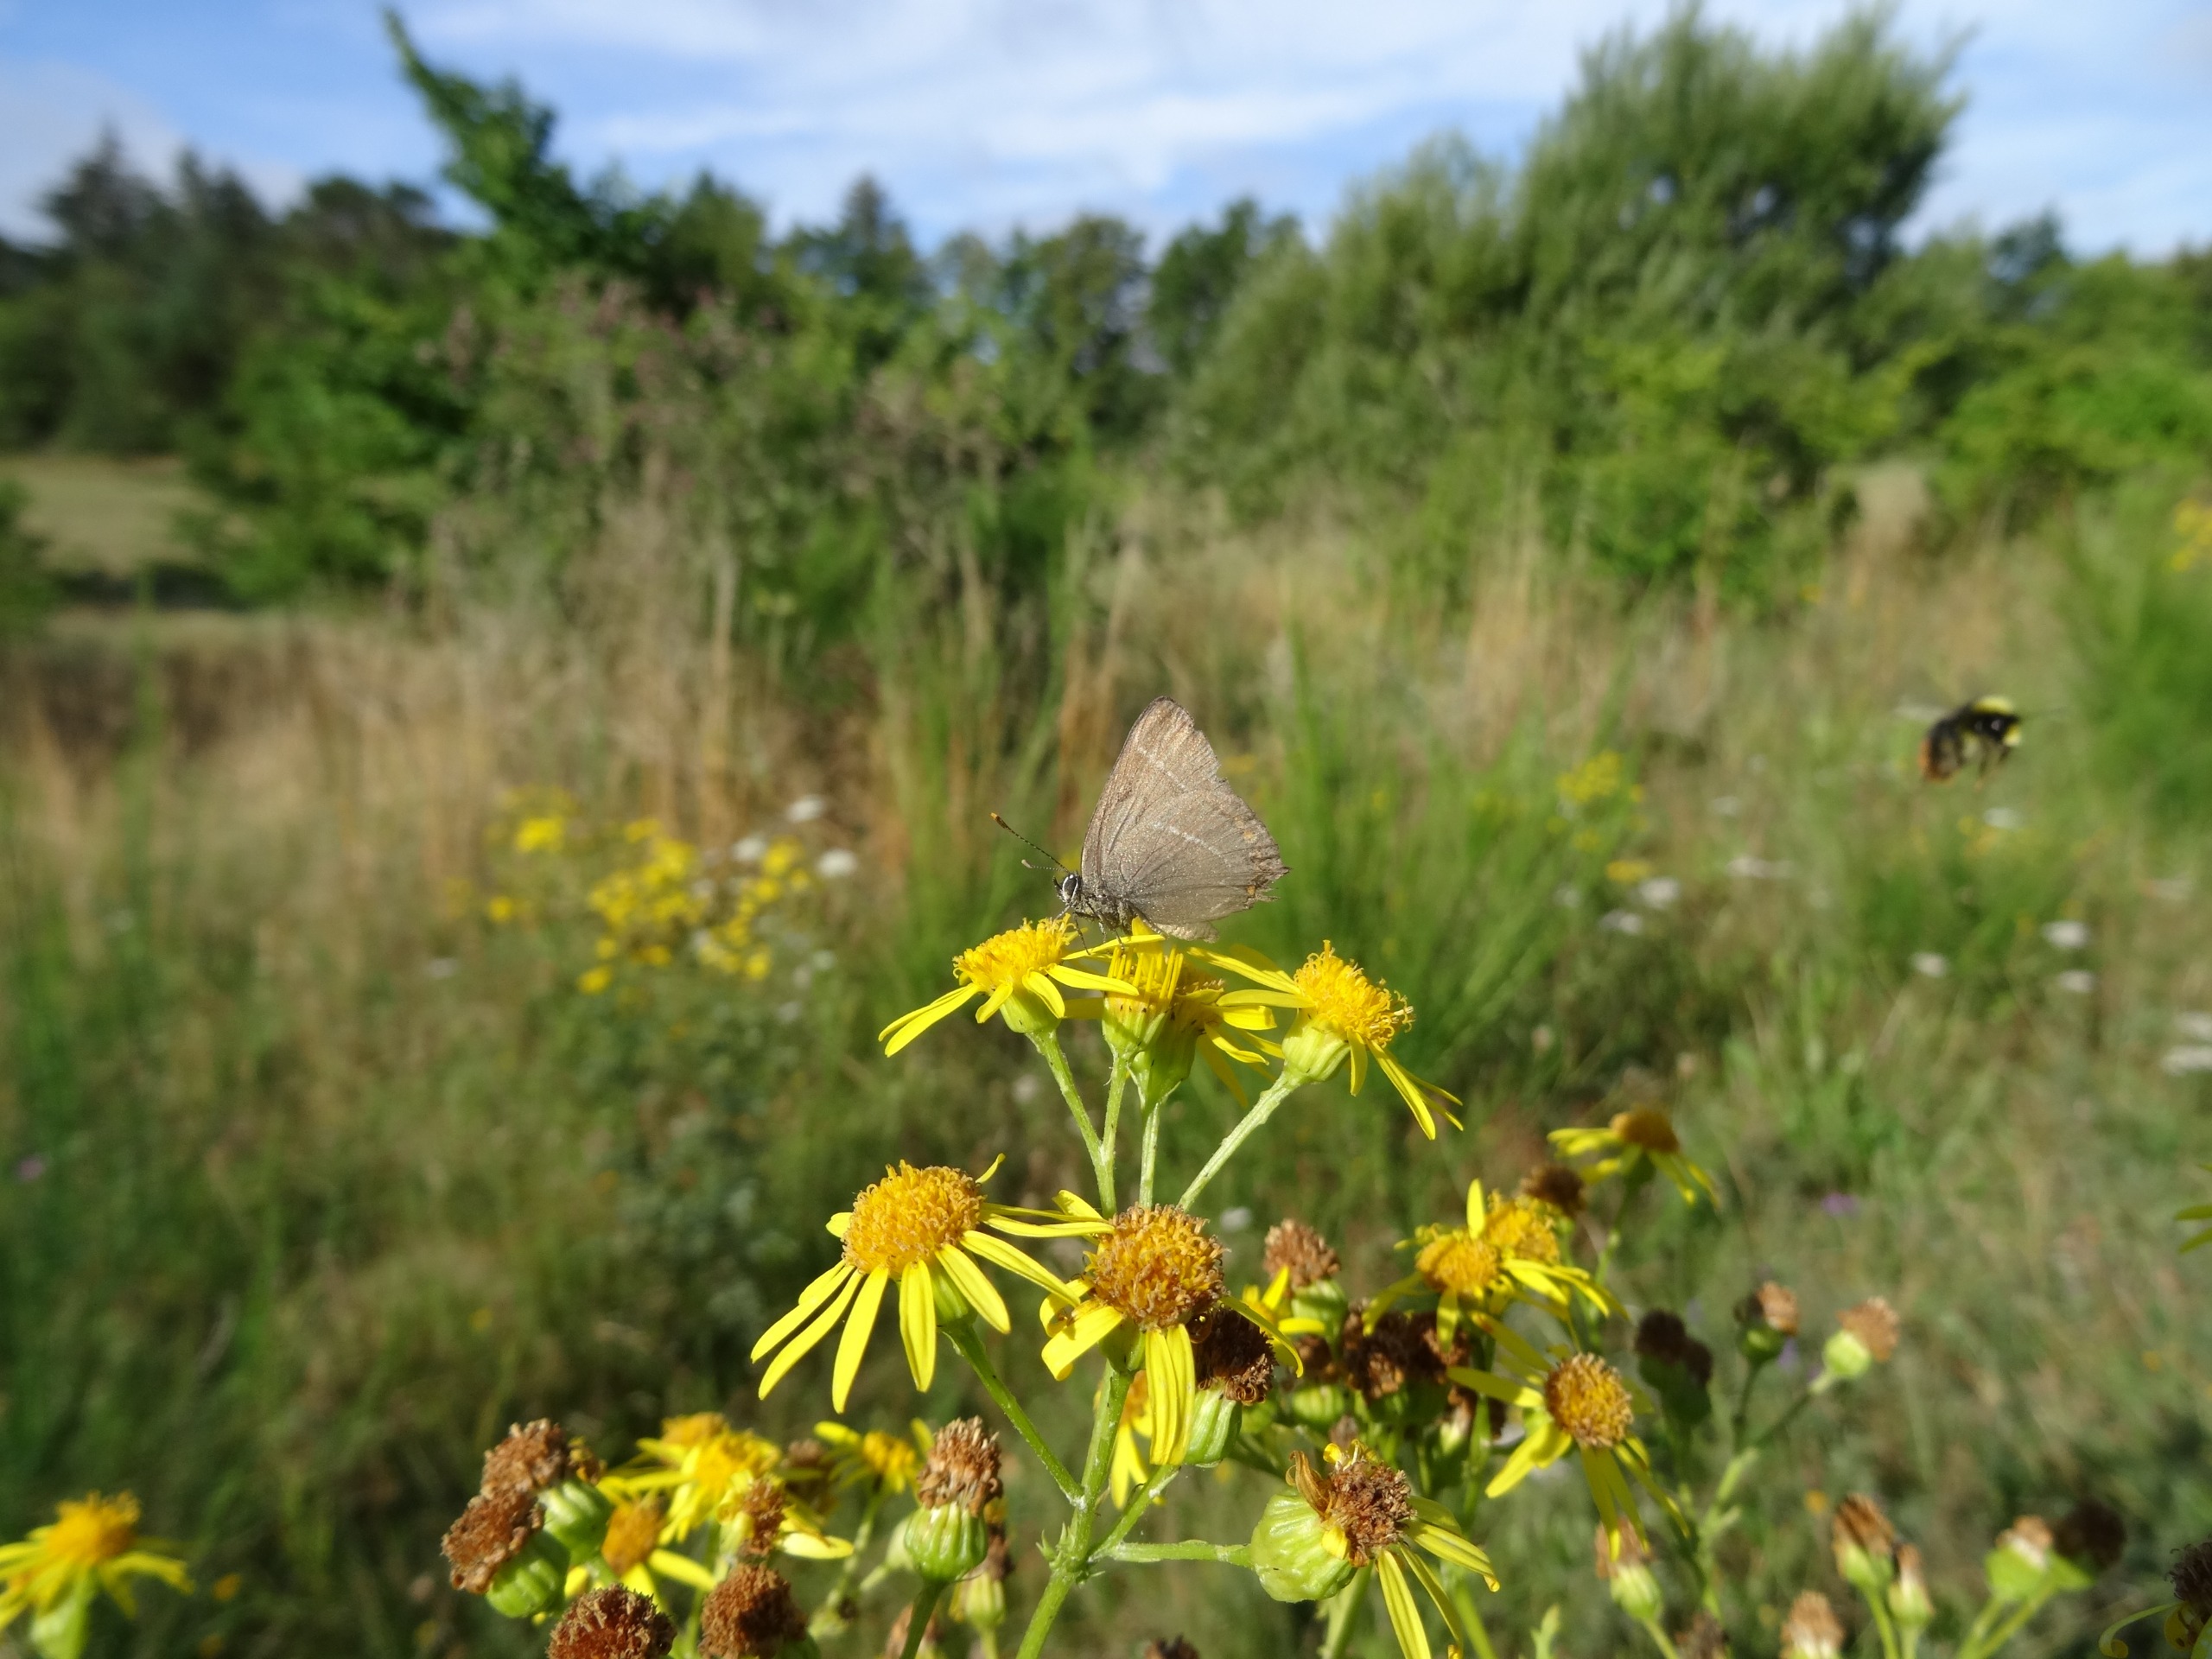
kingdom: Animalia
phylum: Arthropoda
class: Insecta
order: Lepidoptera
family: Lycaenidae
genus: Satyrium
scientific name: Satyrium w-album
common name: Det hvide W
